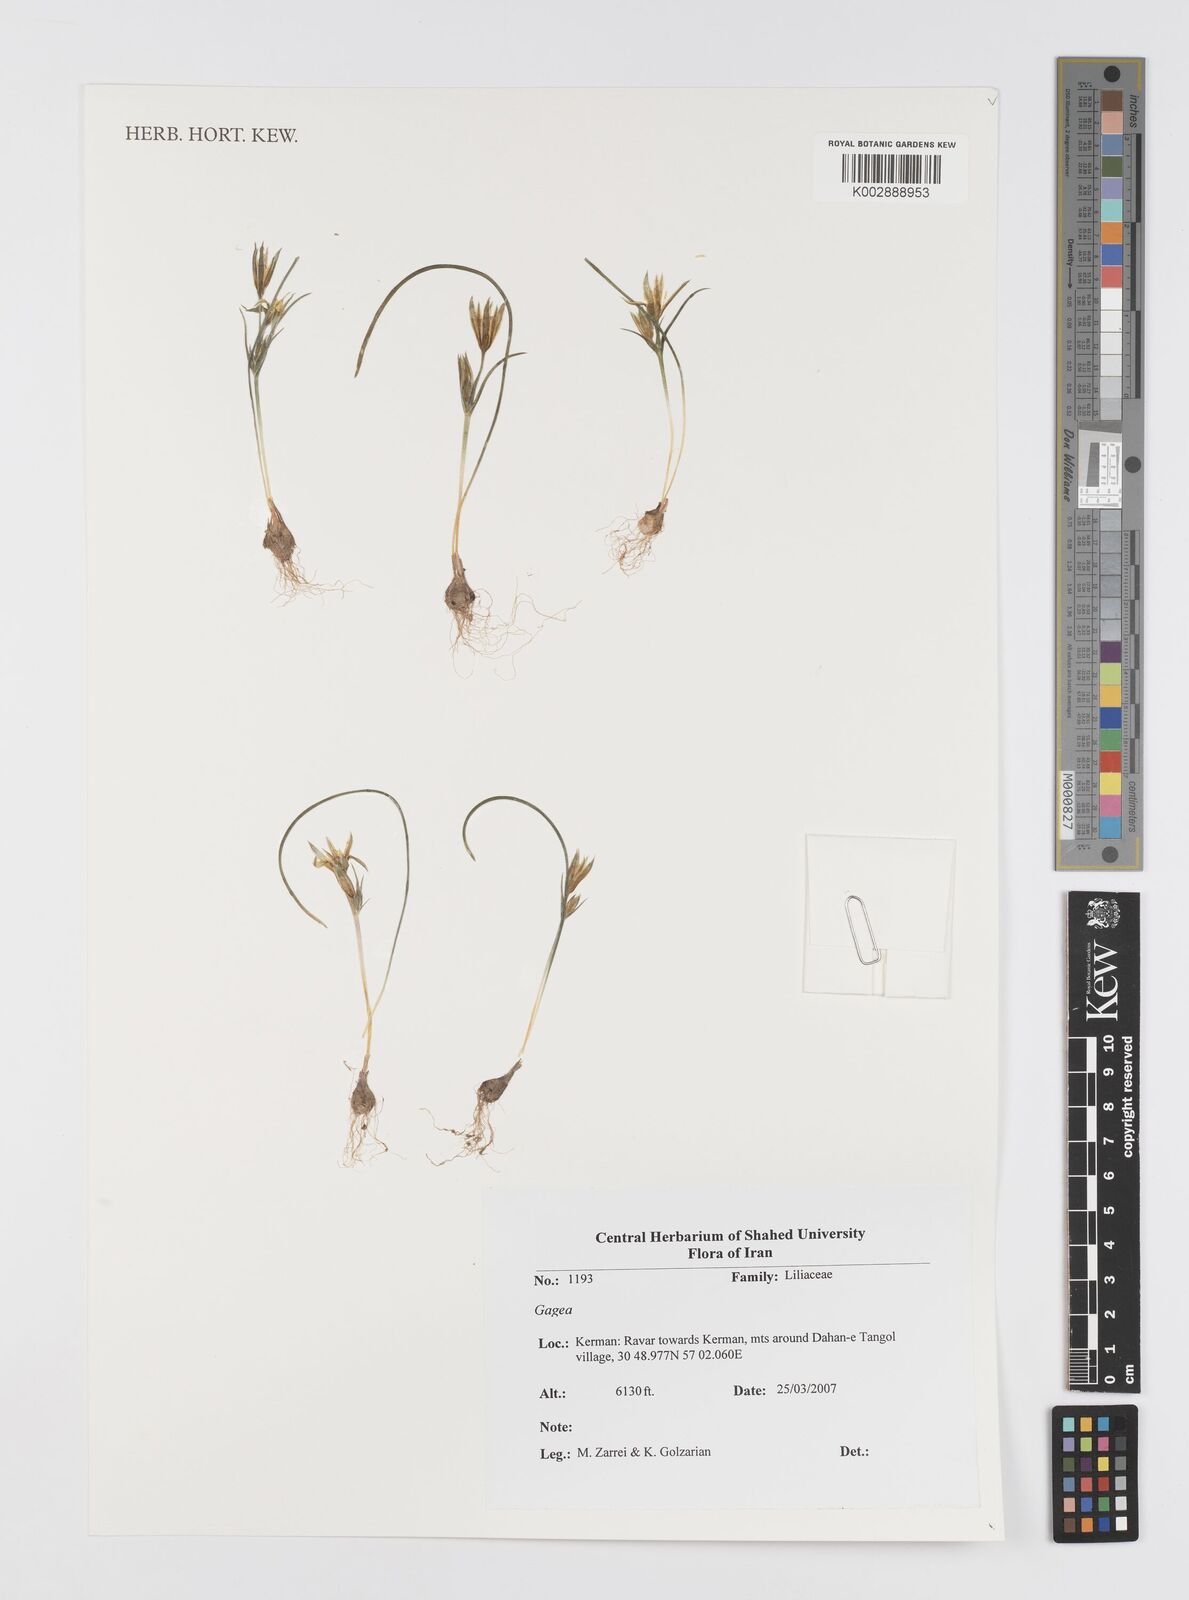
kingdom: Plantae
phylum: Tracheophyta
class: Liliopsida
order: Liliales
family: Liliaceae
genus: Gagea
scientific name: Gagea
